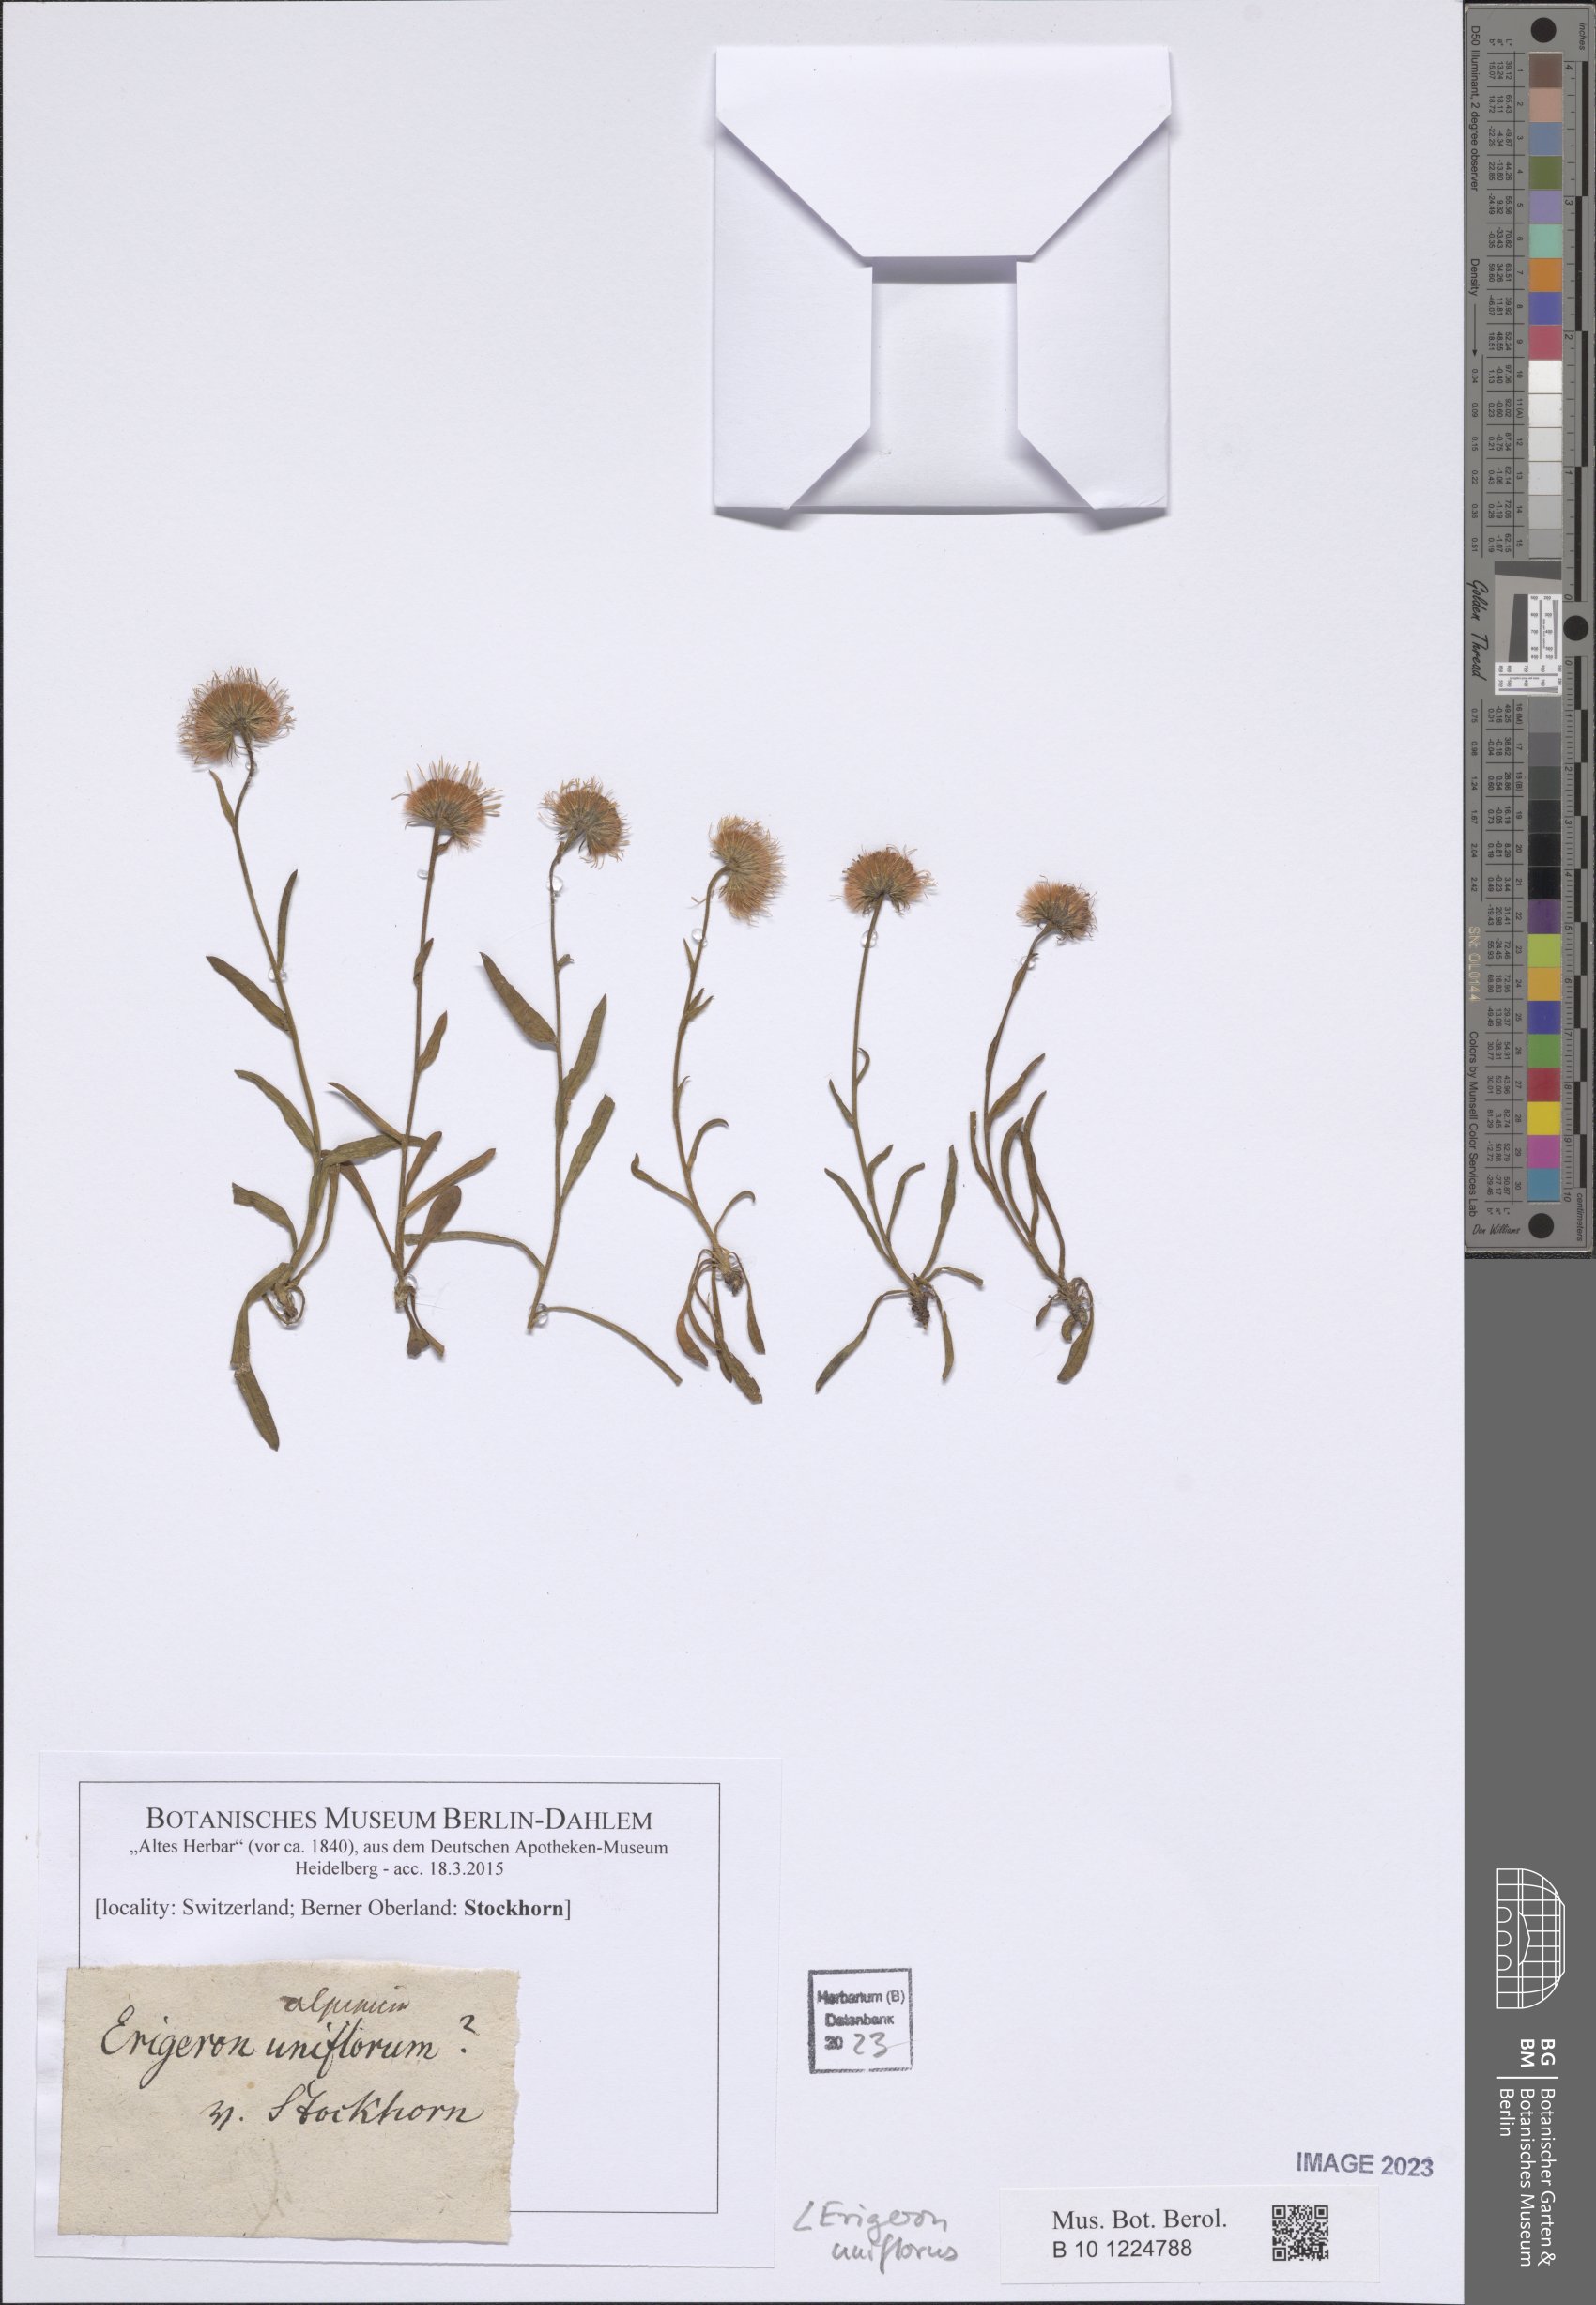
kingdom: Plantae
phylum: Tracheophyta
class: Magnoliopsida
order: Asterales
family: Asteraceae
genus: Erigeron
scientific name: Erigeron uniflorus
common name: Northern daisy
